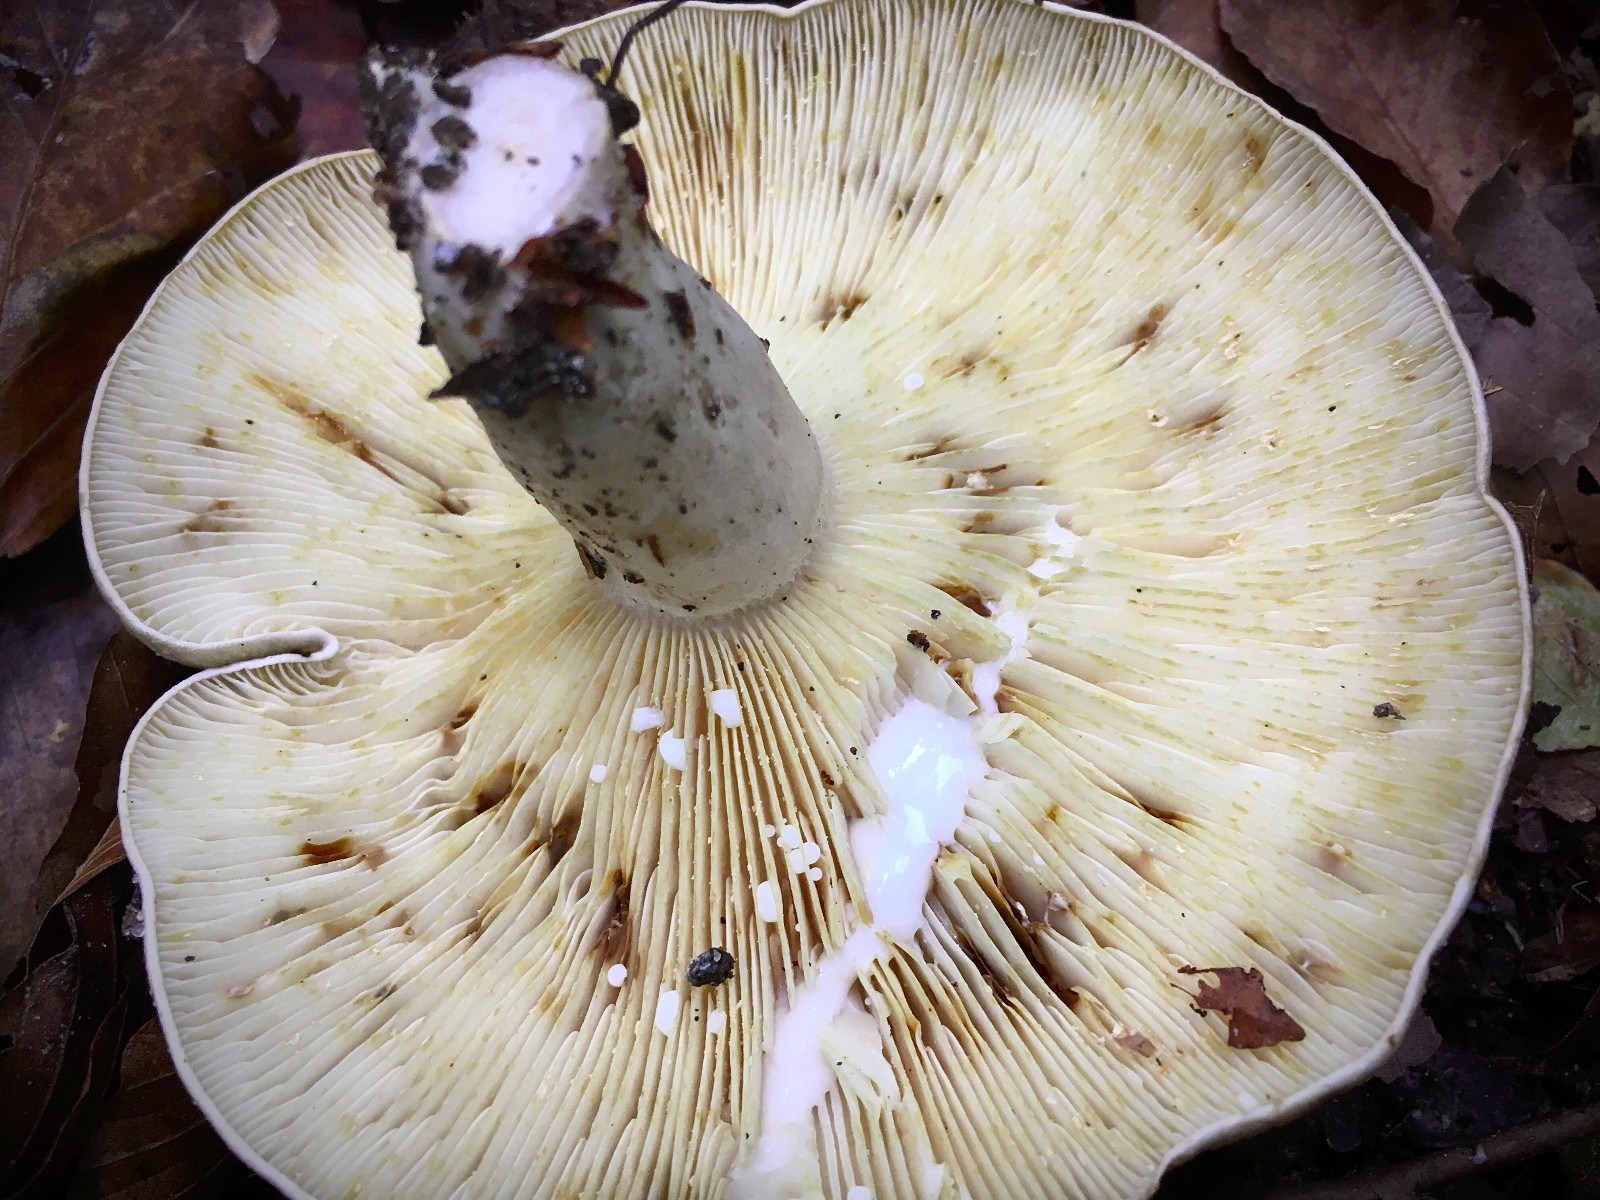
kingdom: Fungi
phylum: Basidiomycota
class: Agaricomycetes
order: Russulales
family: Russulaceae
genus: Lactarius
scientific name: Lactarius blennius
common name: dråbeplettet mælkehat
